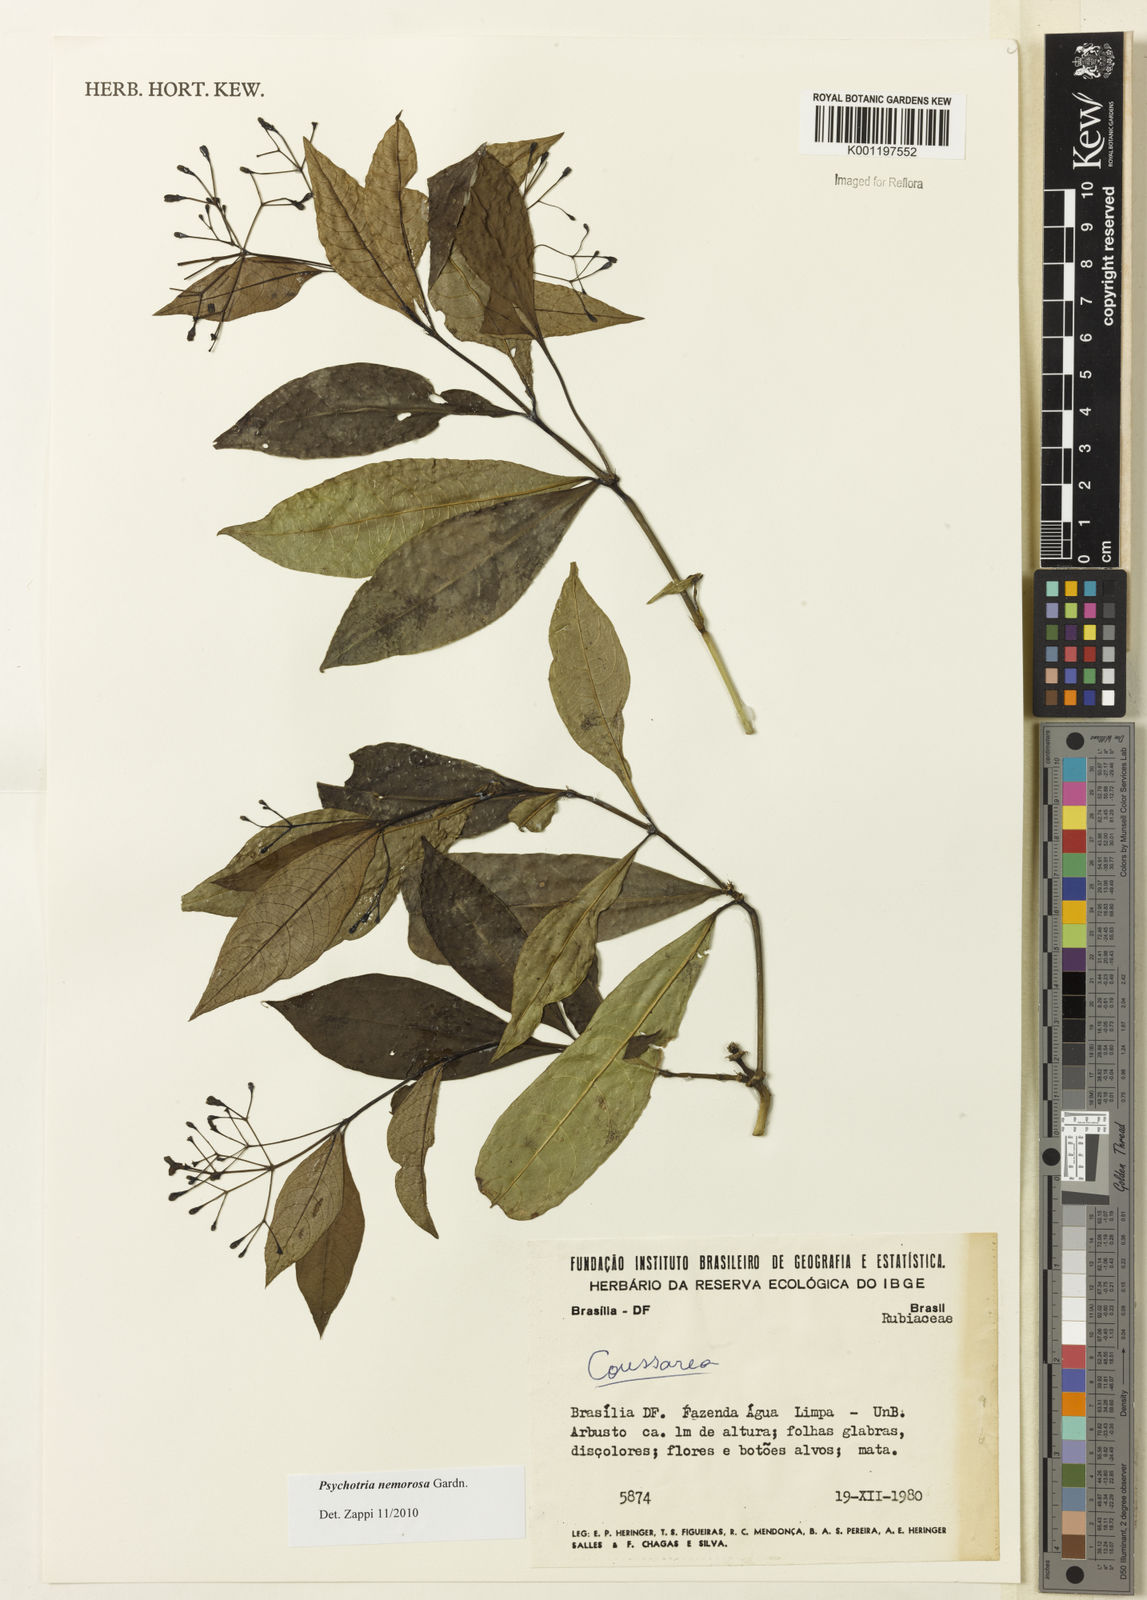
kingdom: Plantae
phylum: Tracheophyta
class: Magnoliopsida
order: Gentianales
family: Rubiaceae
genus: Psychotria
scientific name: Psychotria nemorosa
